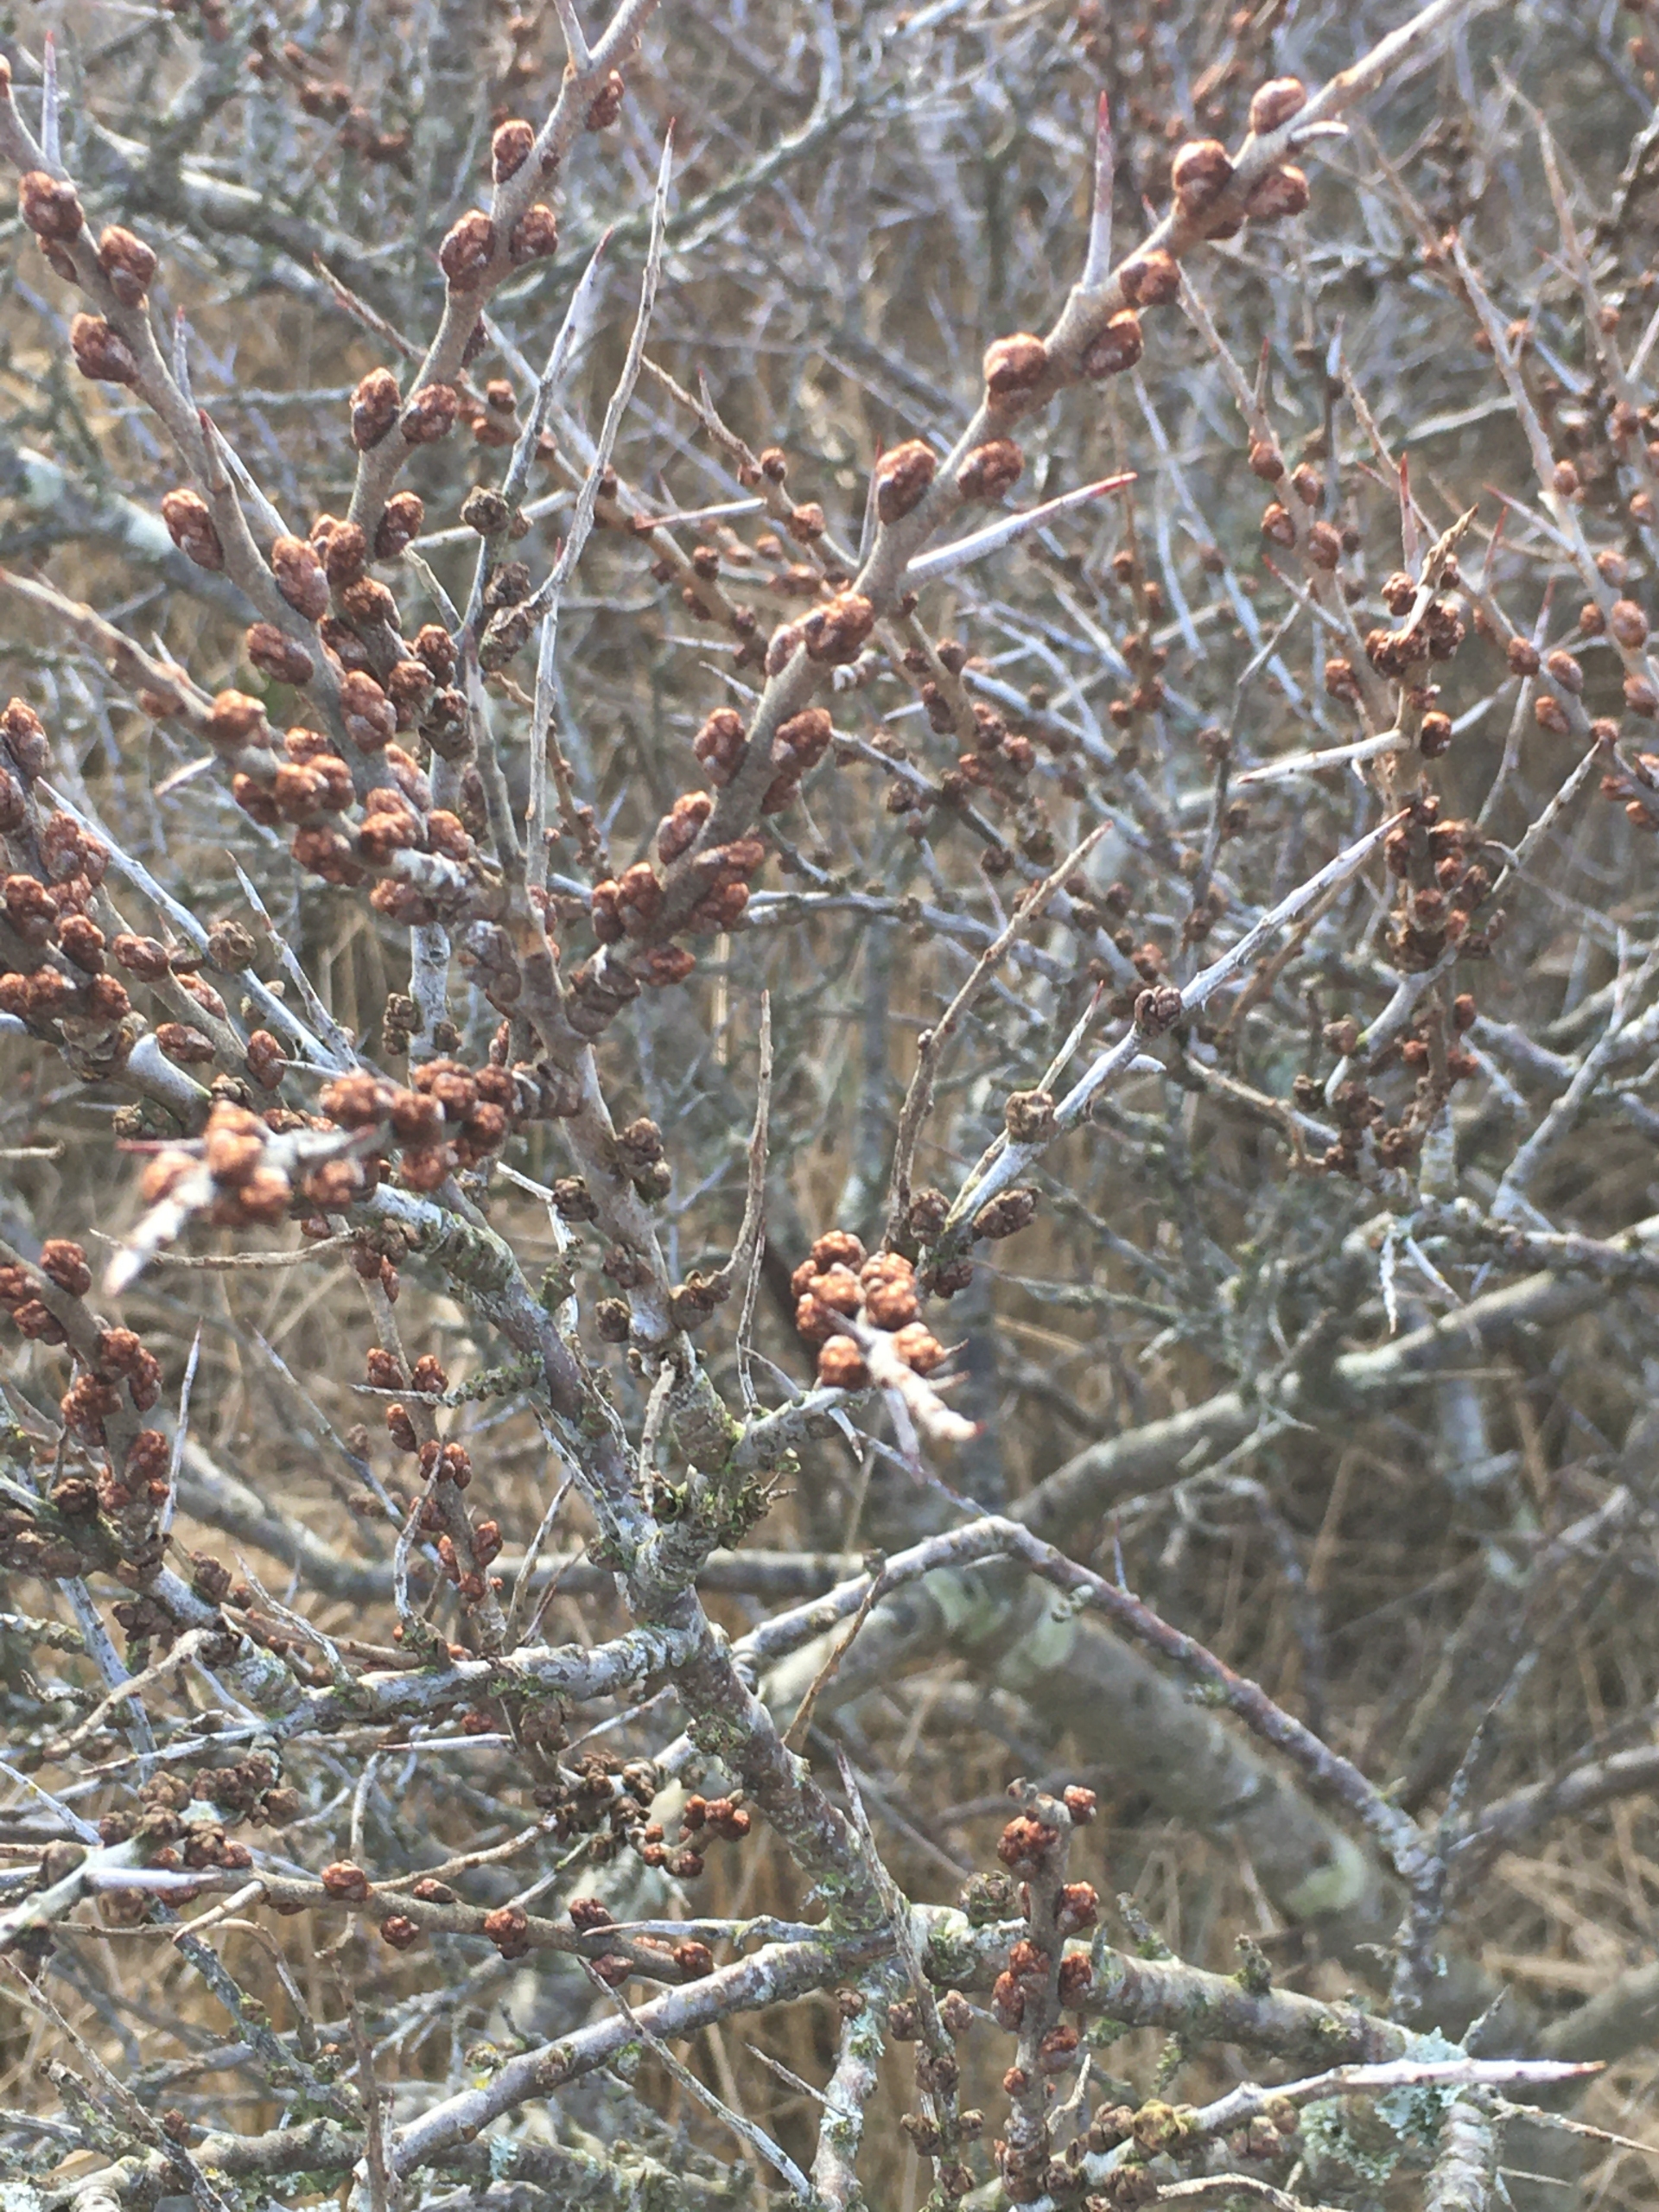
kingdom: Plantae
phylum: Tracheophyta
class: Magnoliopsida
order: Rosales
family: Elaeagnaceae
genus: Hippophae
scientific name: Hippophae rhamnoides
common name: Havtorn
